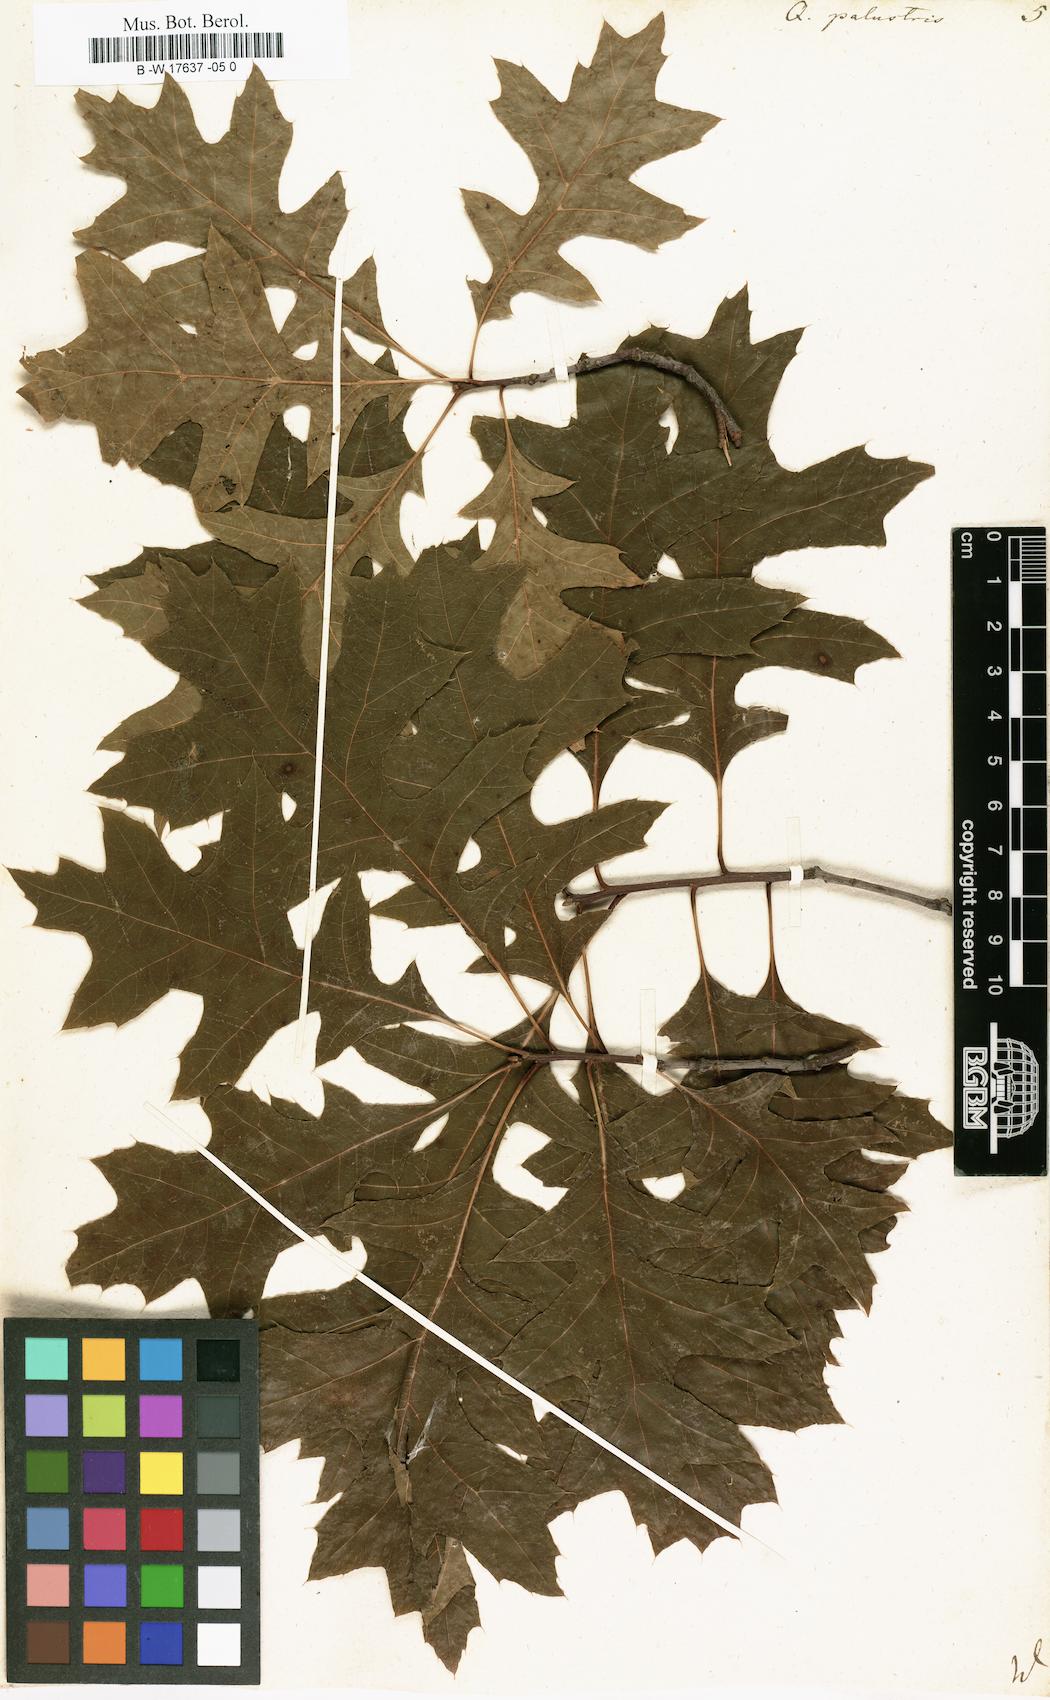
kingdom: Plantae
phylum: Tracheophyta
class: Magnoliopsida
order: Fagales
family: Fagaceae
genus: Quercus
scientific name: Quercus palustris
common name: Pin oak
